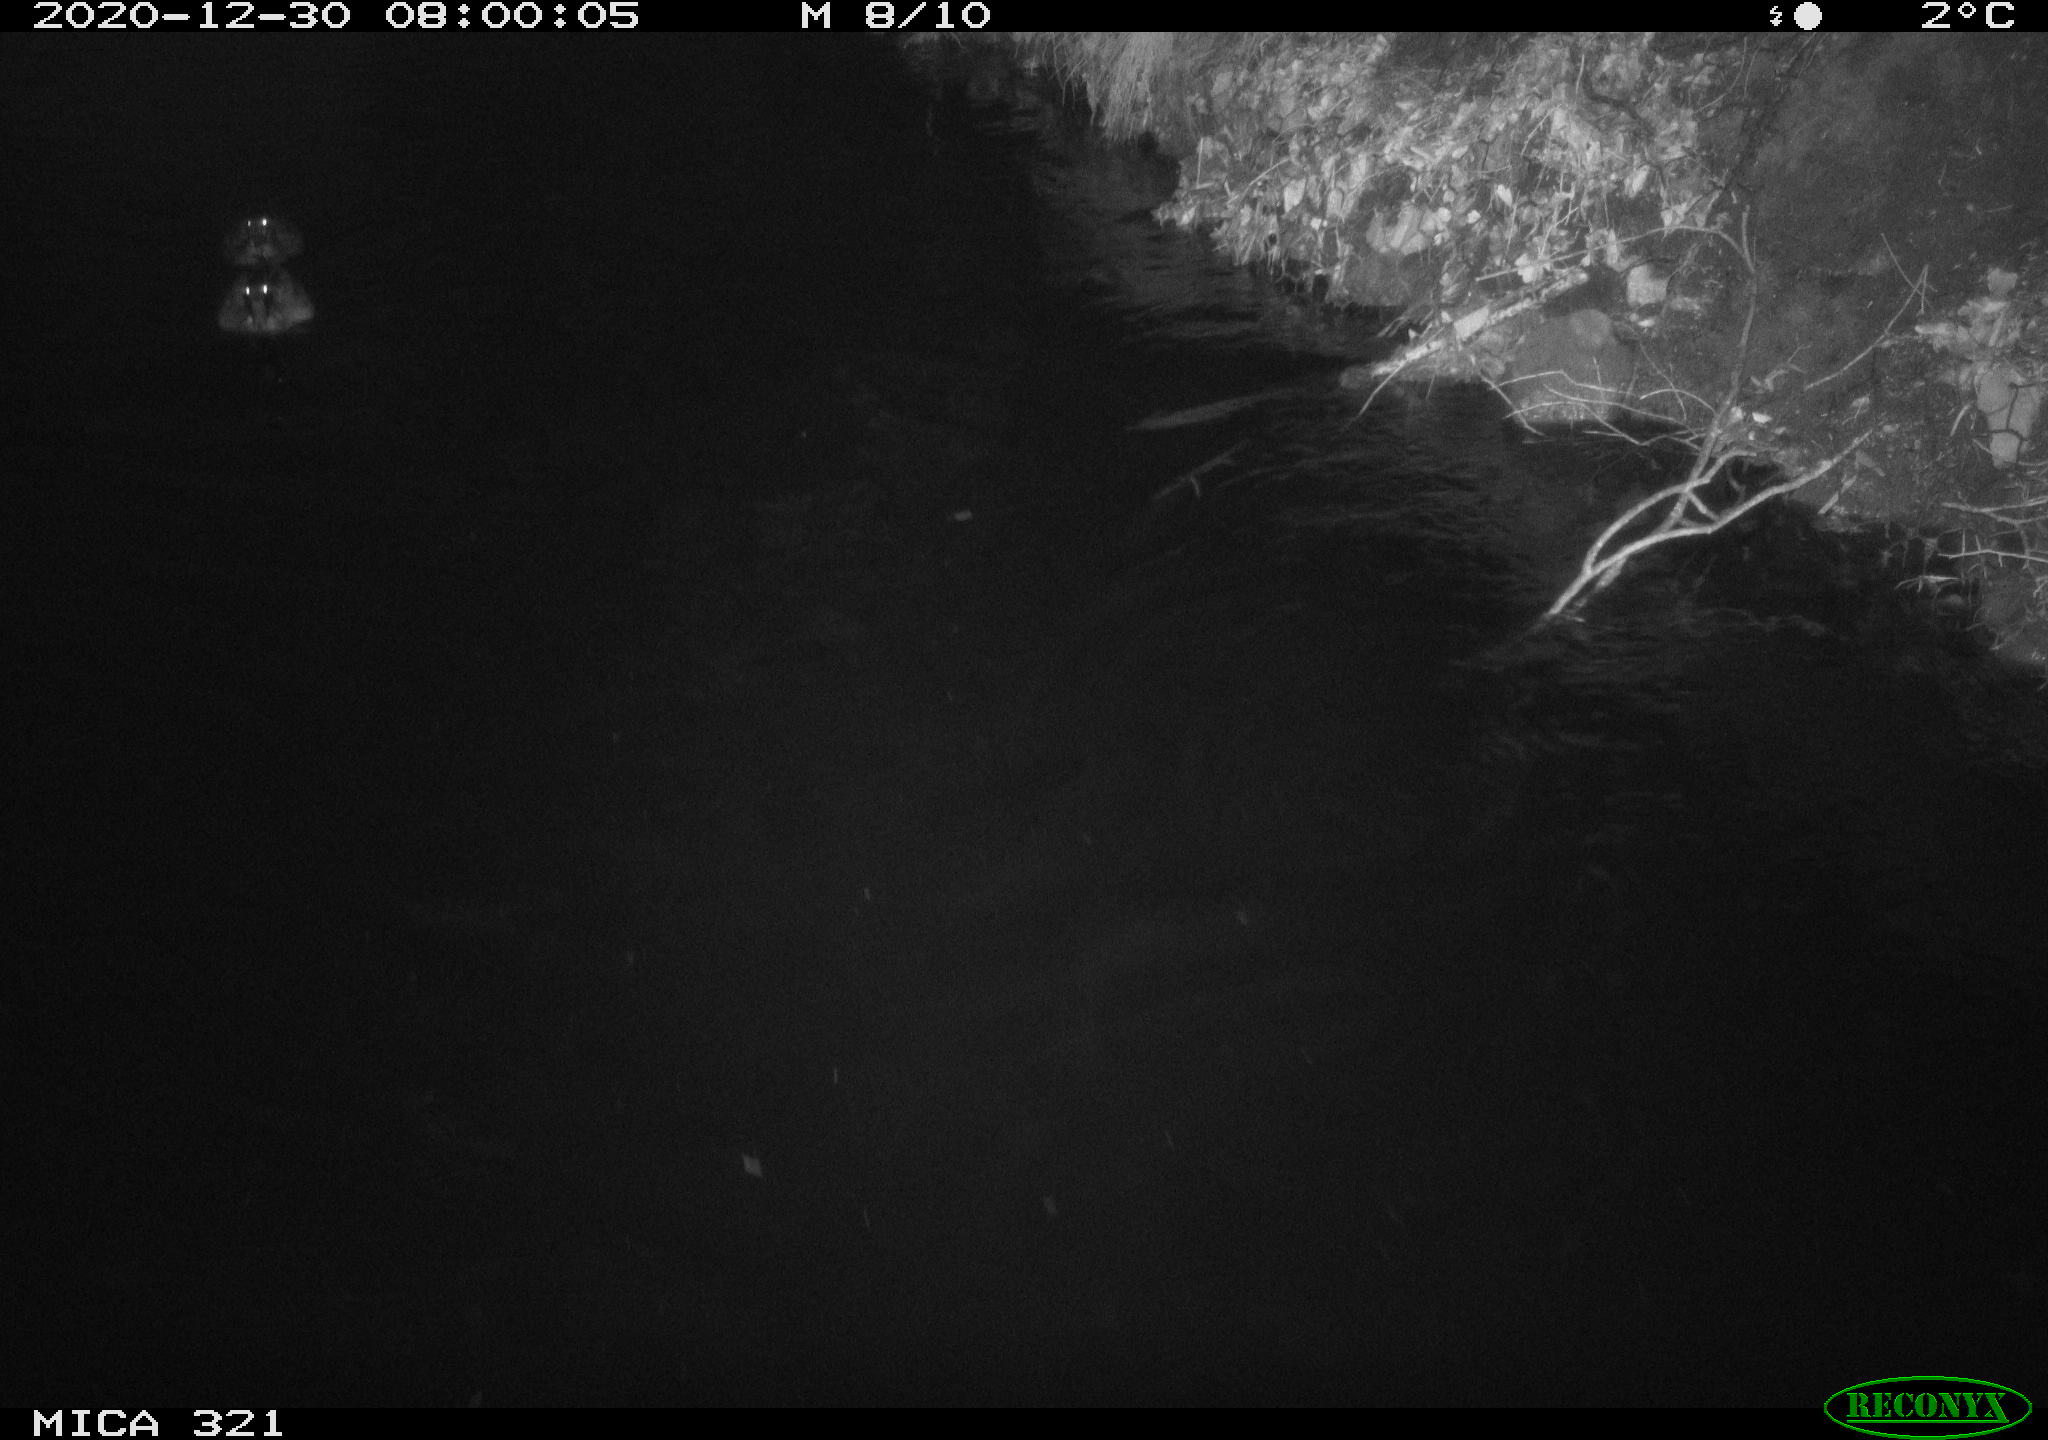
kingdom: Animalia
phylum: Chordata
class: Aves
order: Anseriformes
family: Anatidae
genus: Anas
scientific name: Anas platyrhynchos
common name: Mallard
